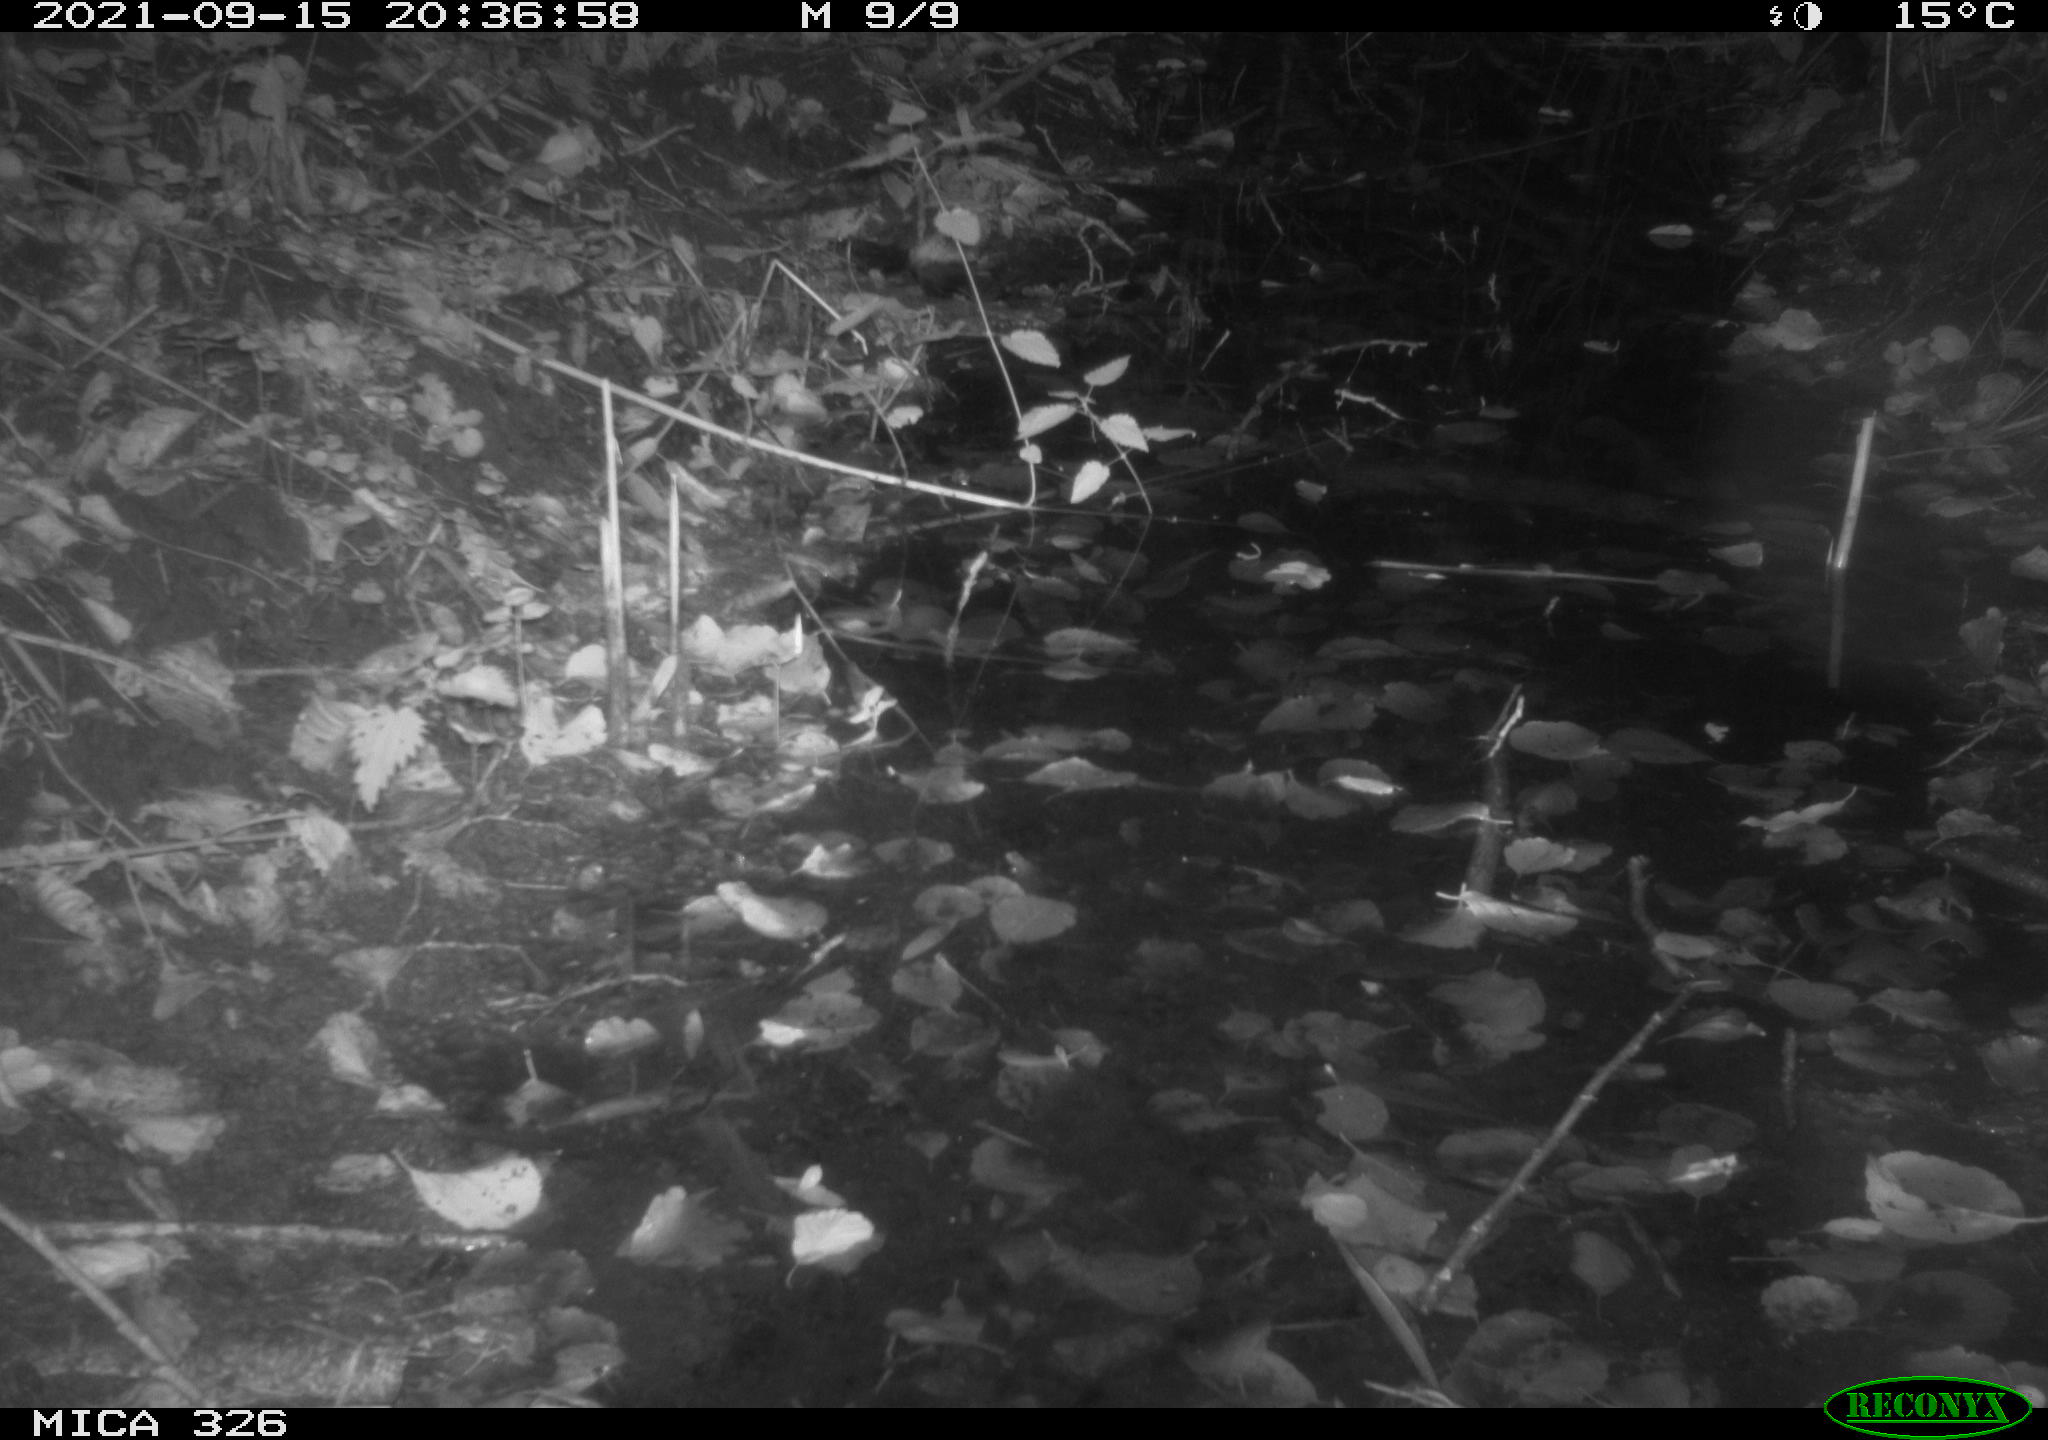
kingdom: Animalia
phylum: Chordata
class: Mammalia
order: Rodentia
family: Muridae
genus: Rattus
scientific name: Rattus norvegicus
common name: Brown rat
